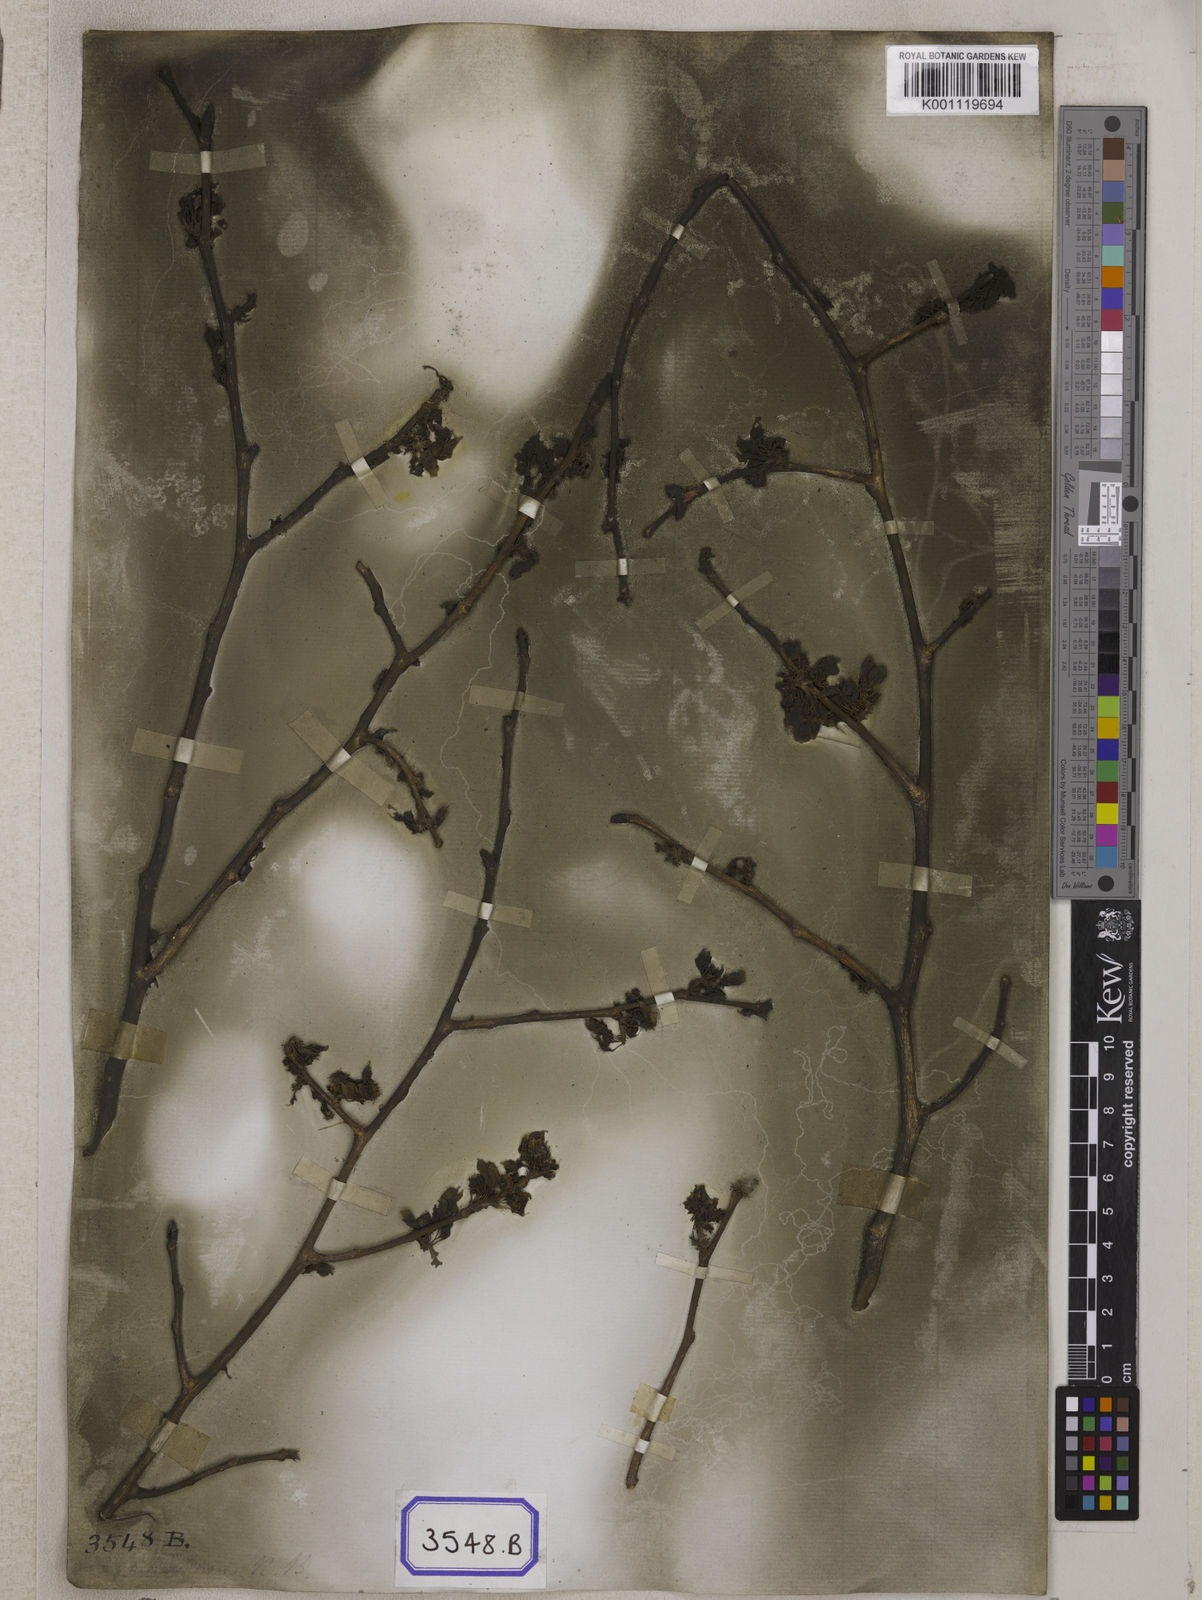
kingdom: Plantae
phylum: Tracheophyta
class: Magnoliopsida
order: Rosales
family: Ulmaceae
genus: Ulmus
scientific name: Ulmus parvifolia
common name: Chinese elm
